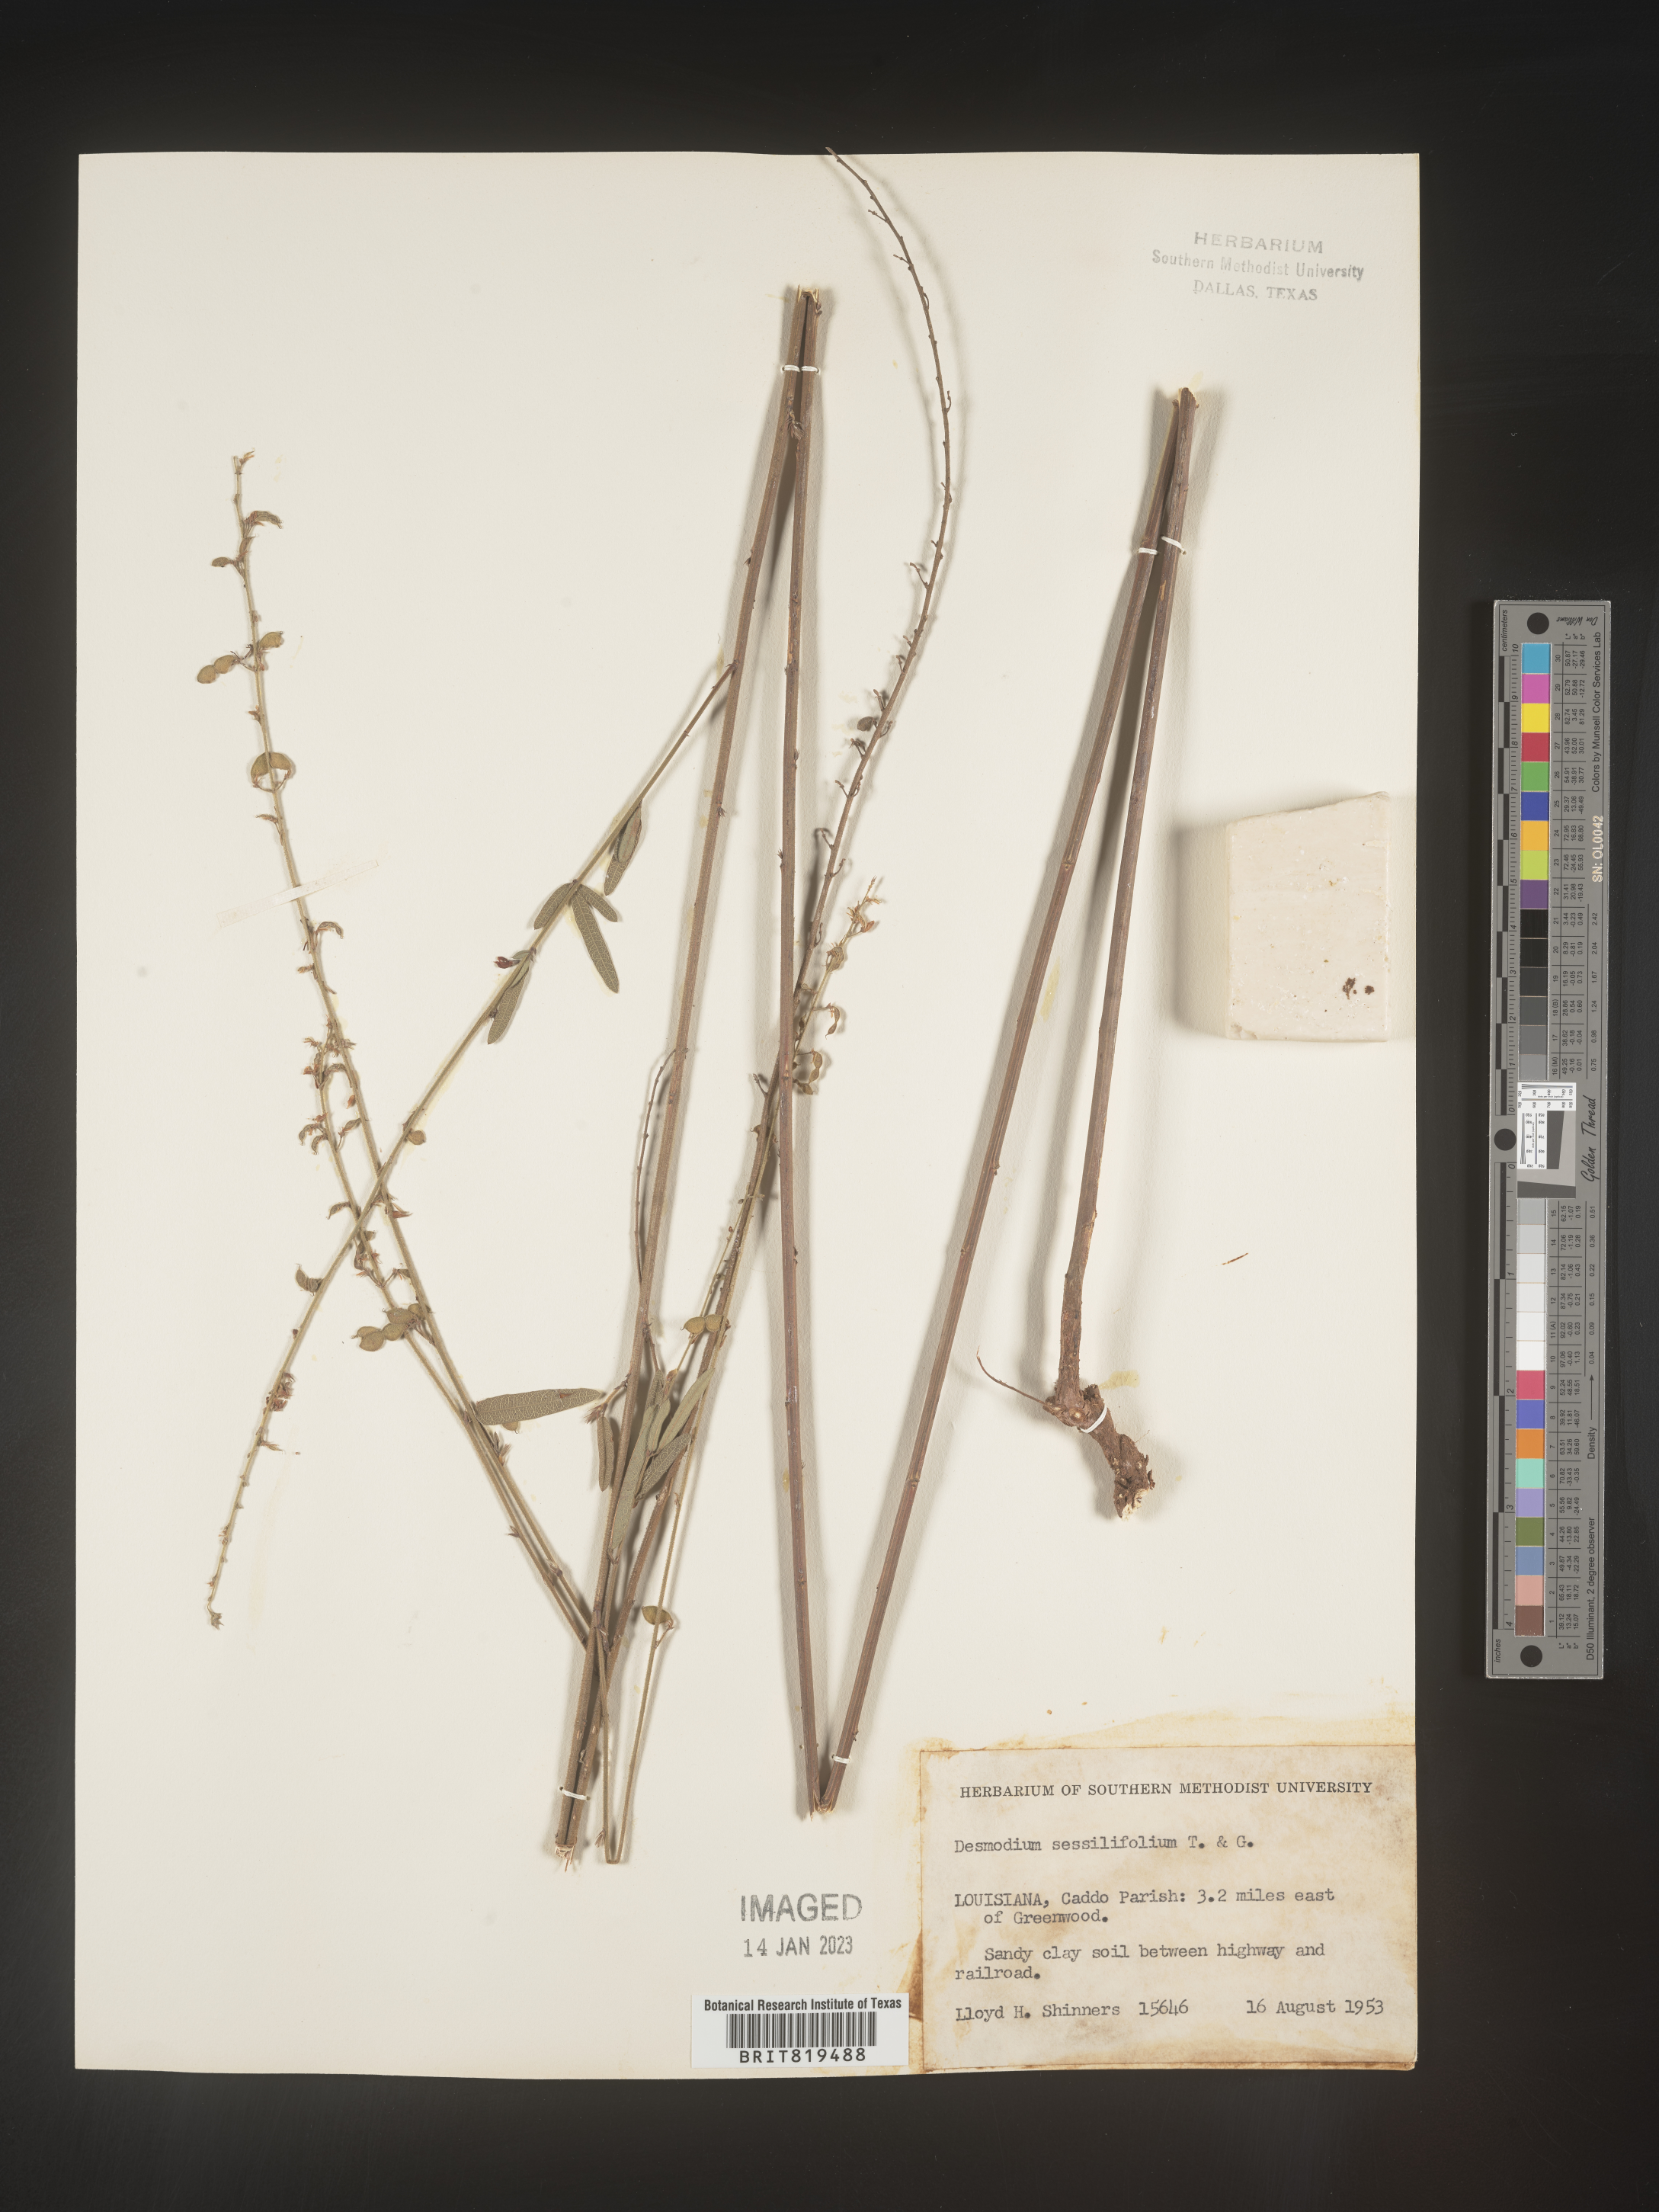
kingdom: Plantae
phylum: Tracheophyta
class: Magnoliopsida
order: Fabales
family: Fabaceae
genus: Desmodium
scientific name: Desmodium sessilifolium
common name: Sessile tick-clover
